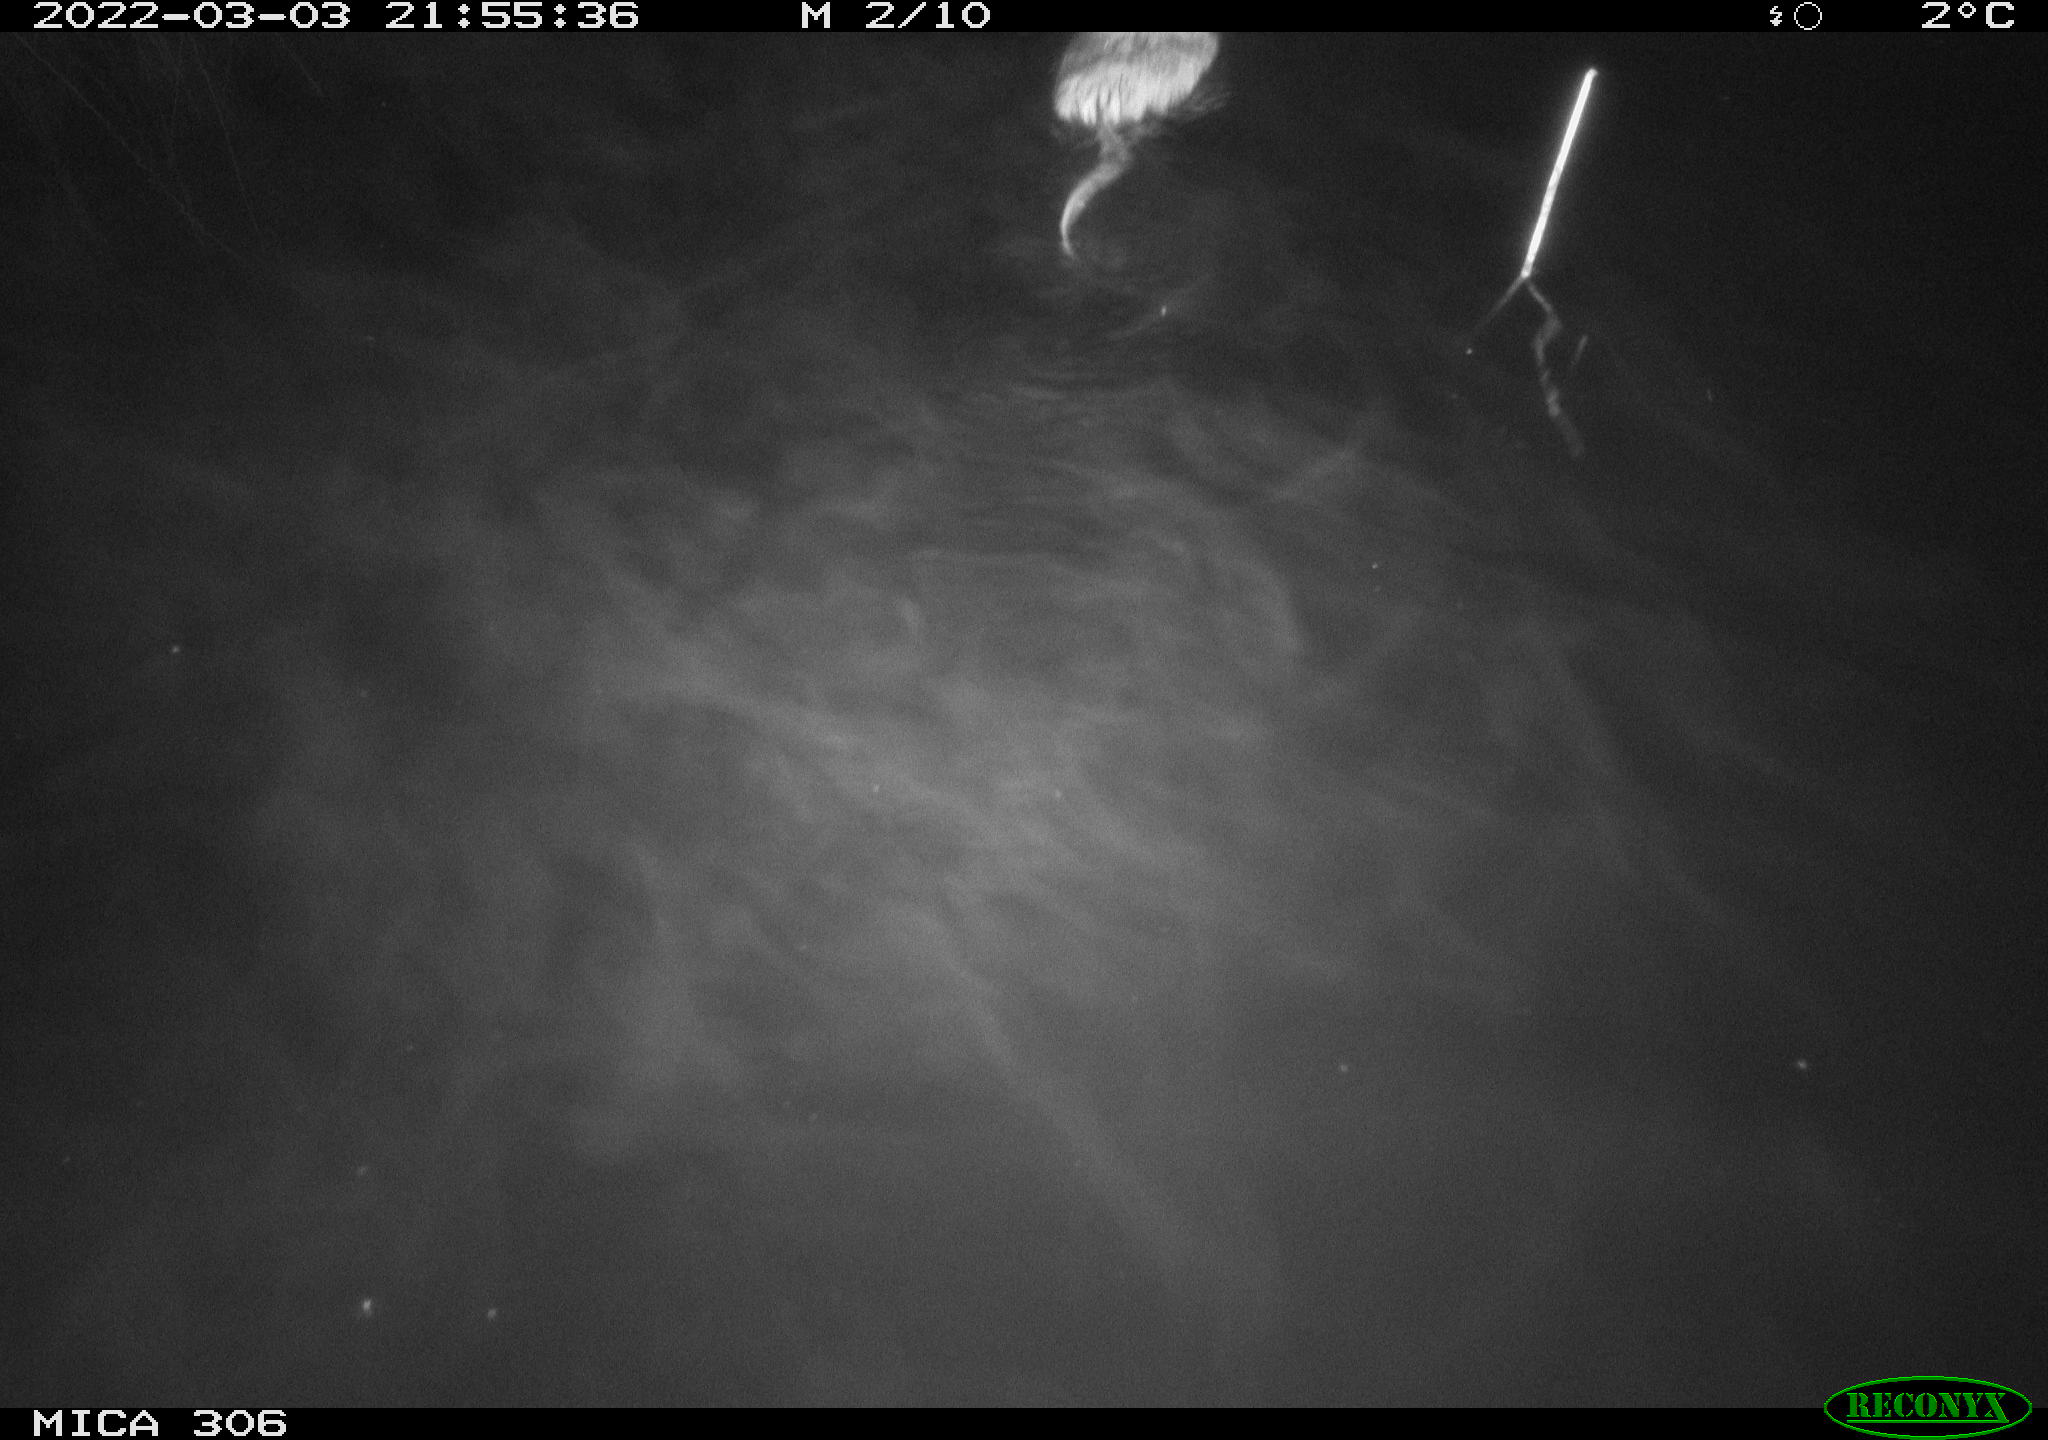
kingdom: Animalia
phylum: Chordata
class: Mammalia
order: Rodentia
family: Cricetidae
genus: Ondatra
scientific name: Ondatra zibethicus
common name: Muskrat
